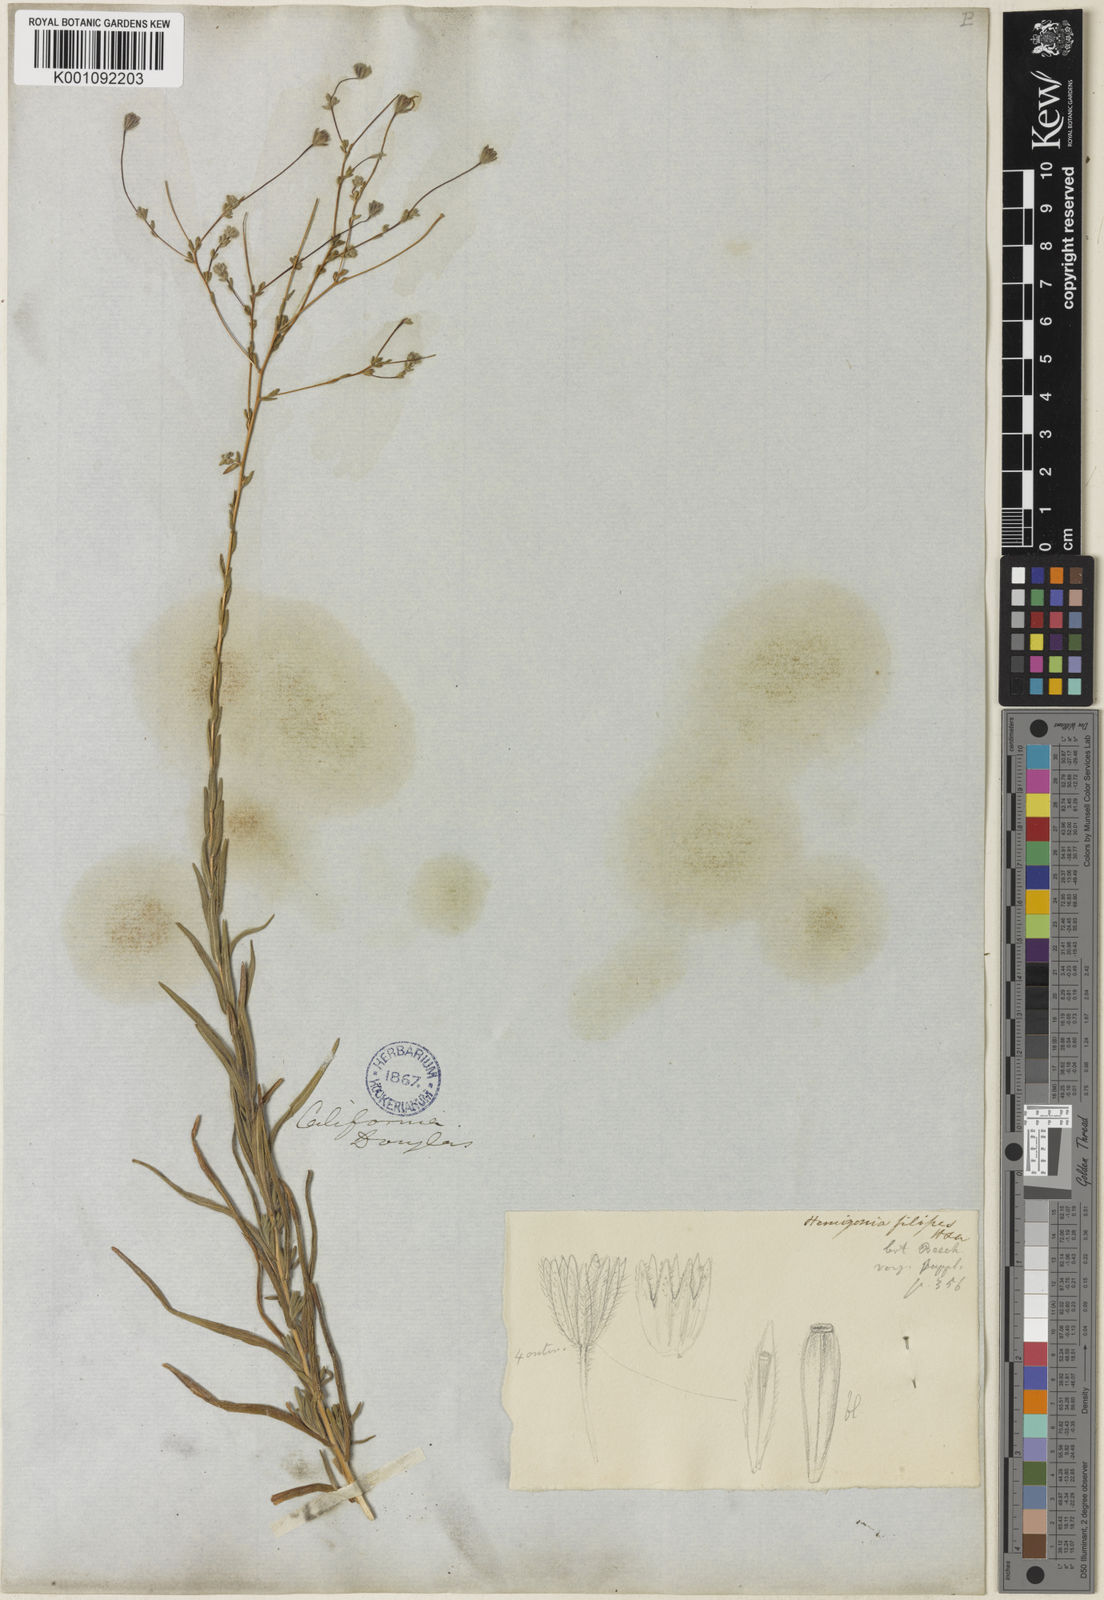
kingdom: Plantae
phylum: Tracheophyta
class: Magnoliopsida
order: Asterales
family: Asteraceae
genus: Holozonia
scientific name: Holozonia filipes
